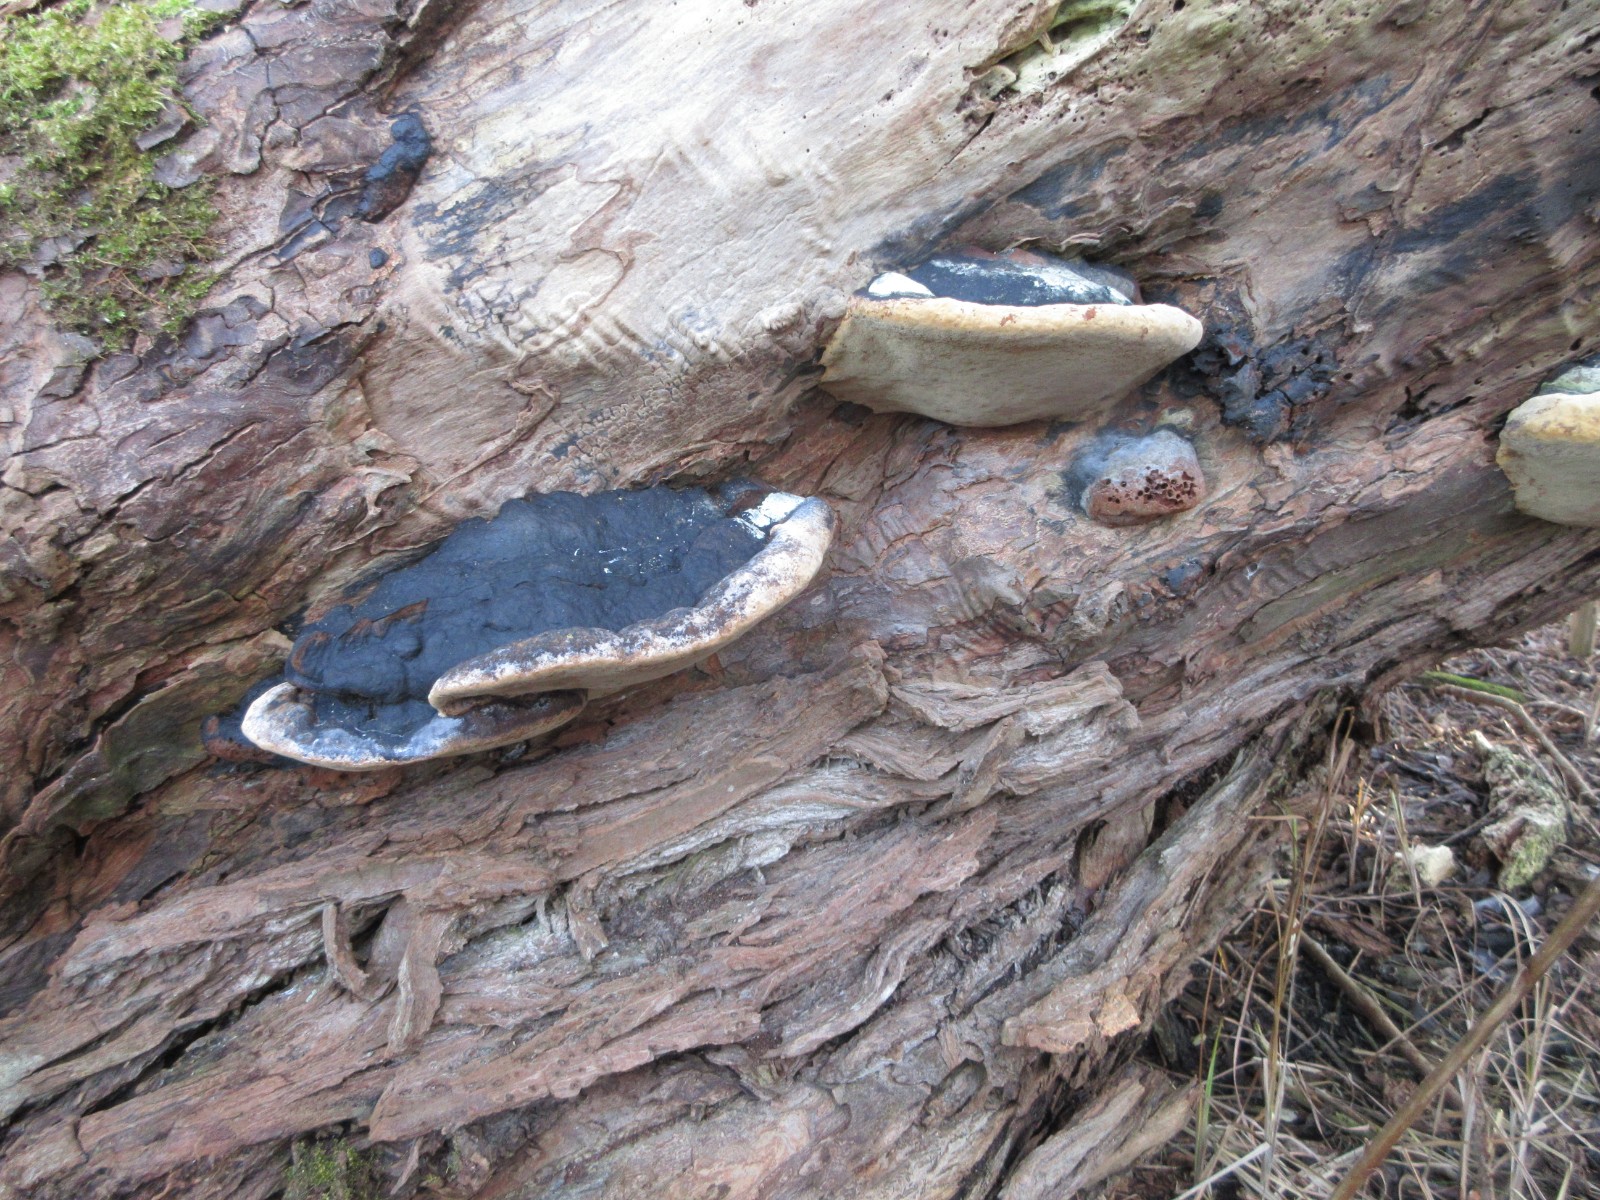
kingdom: Fungi
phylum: Basidiomycota
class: Agaricomycetes
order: Hymenochaetales
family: Hymenochaetaceae
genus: Phellinus
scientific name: Phellinus igniarius
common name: almindelig ildporesvamp
